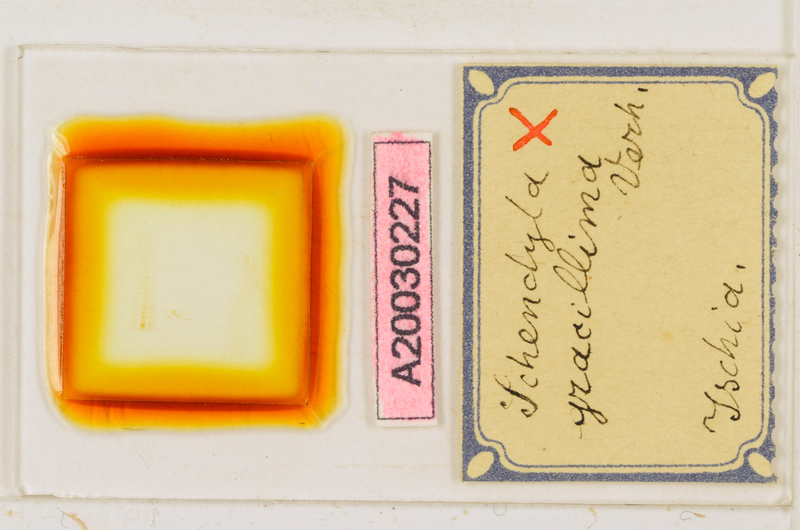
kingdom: Animalia
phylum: Arthropoda
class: Chilopoda
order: Geophilomorpha
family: Schendylidae
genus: Schendyla
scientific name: Schendyla gracillima
